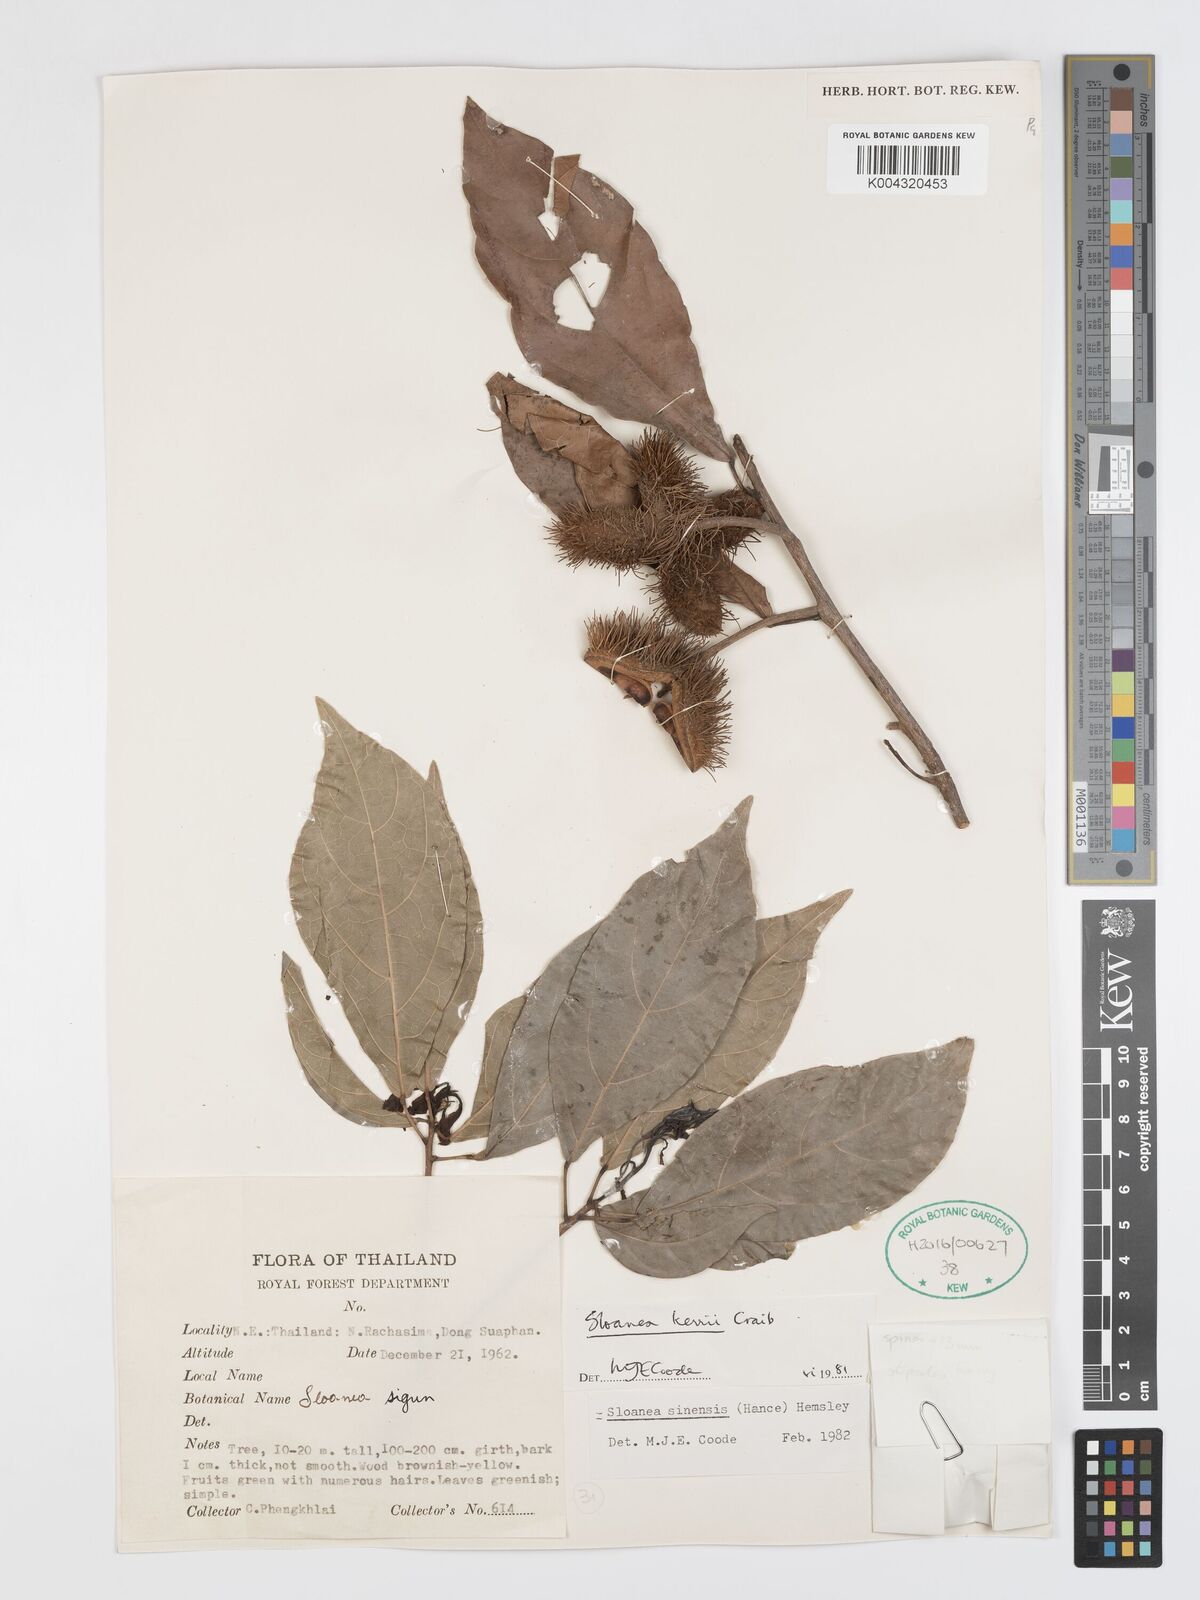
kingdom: Plantae
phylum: Tracheophyta
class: Magnoliopsida
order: Oxalidales
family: Elaeocarpaceae
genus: Sloanea
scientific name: Sloanea sinensis
